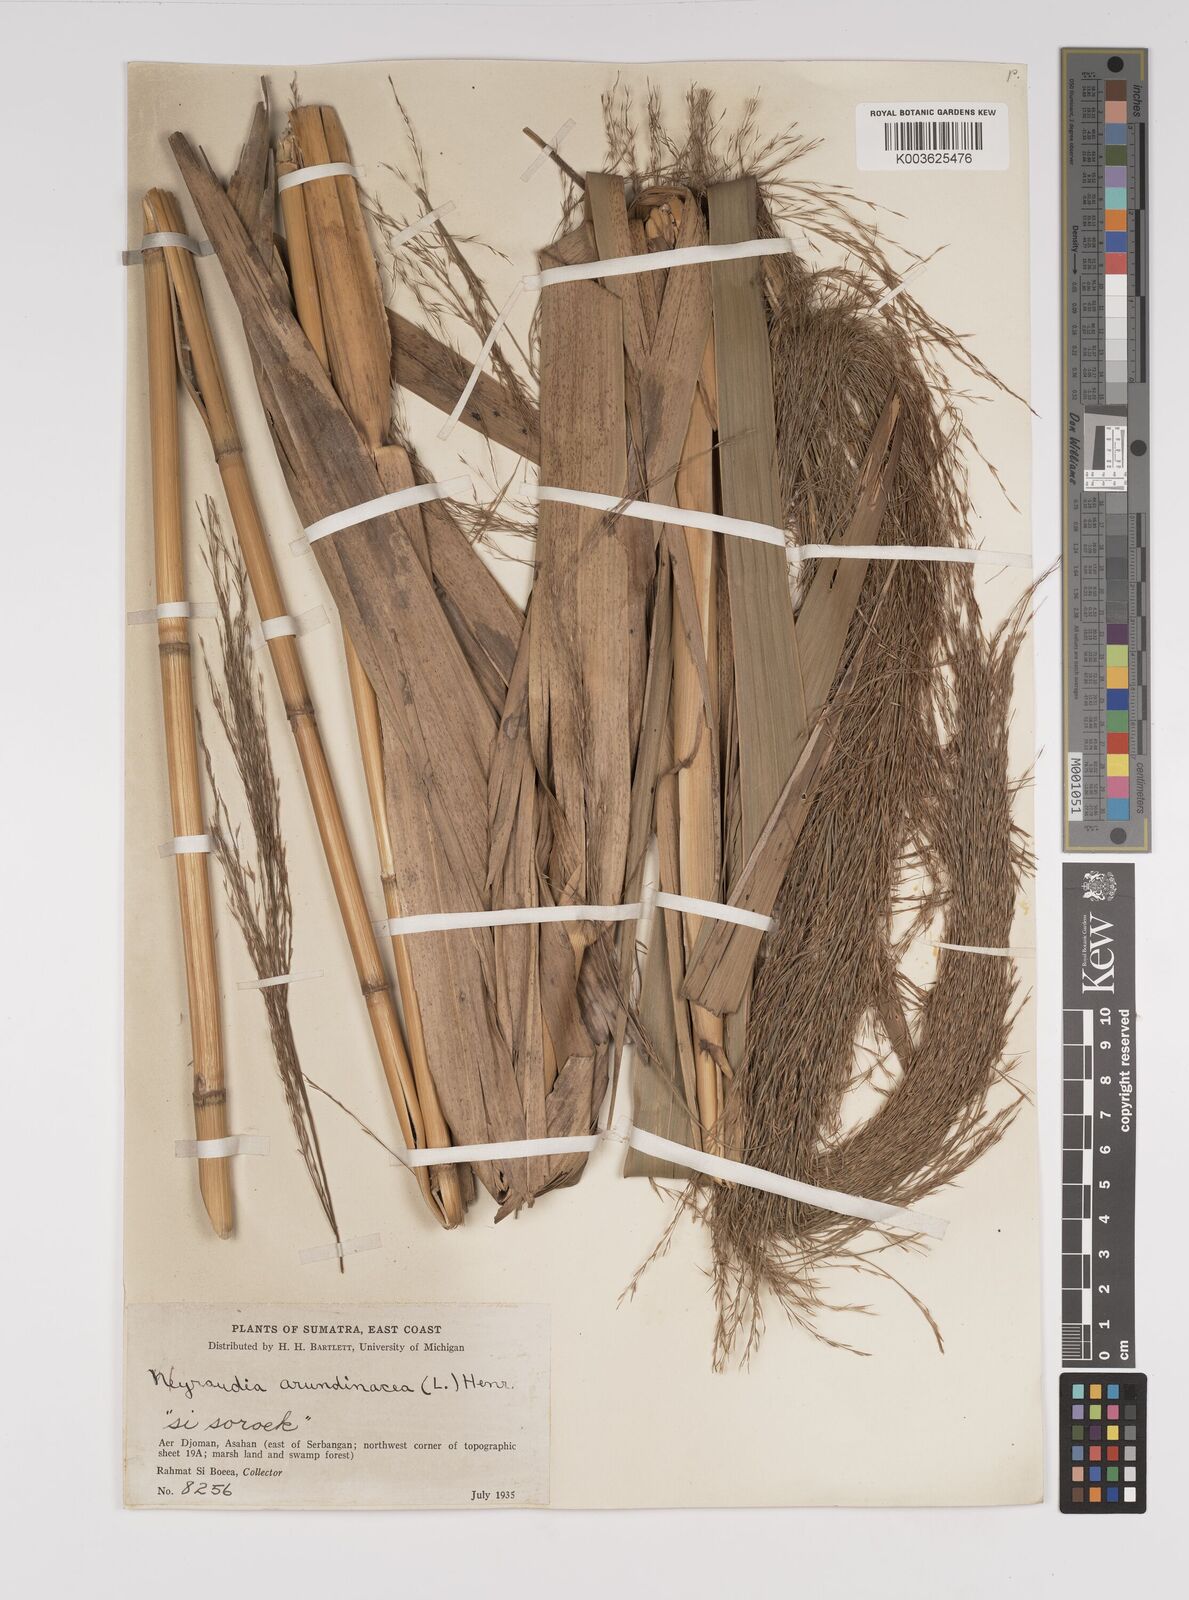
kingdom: Plantae
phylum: Tracheophyta
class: Liliopsida
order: Poales
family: Poaceae
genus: Neyraudia
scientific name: Neyraudia reynaudiana
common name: Silkreed
